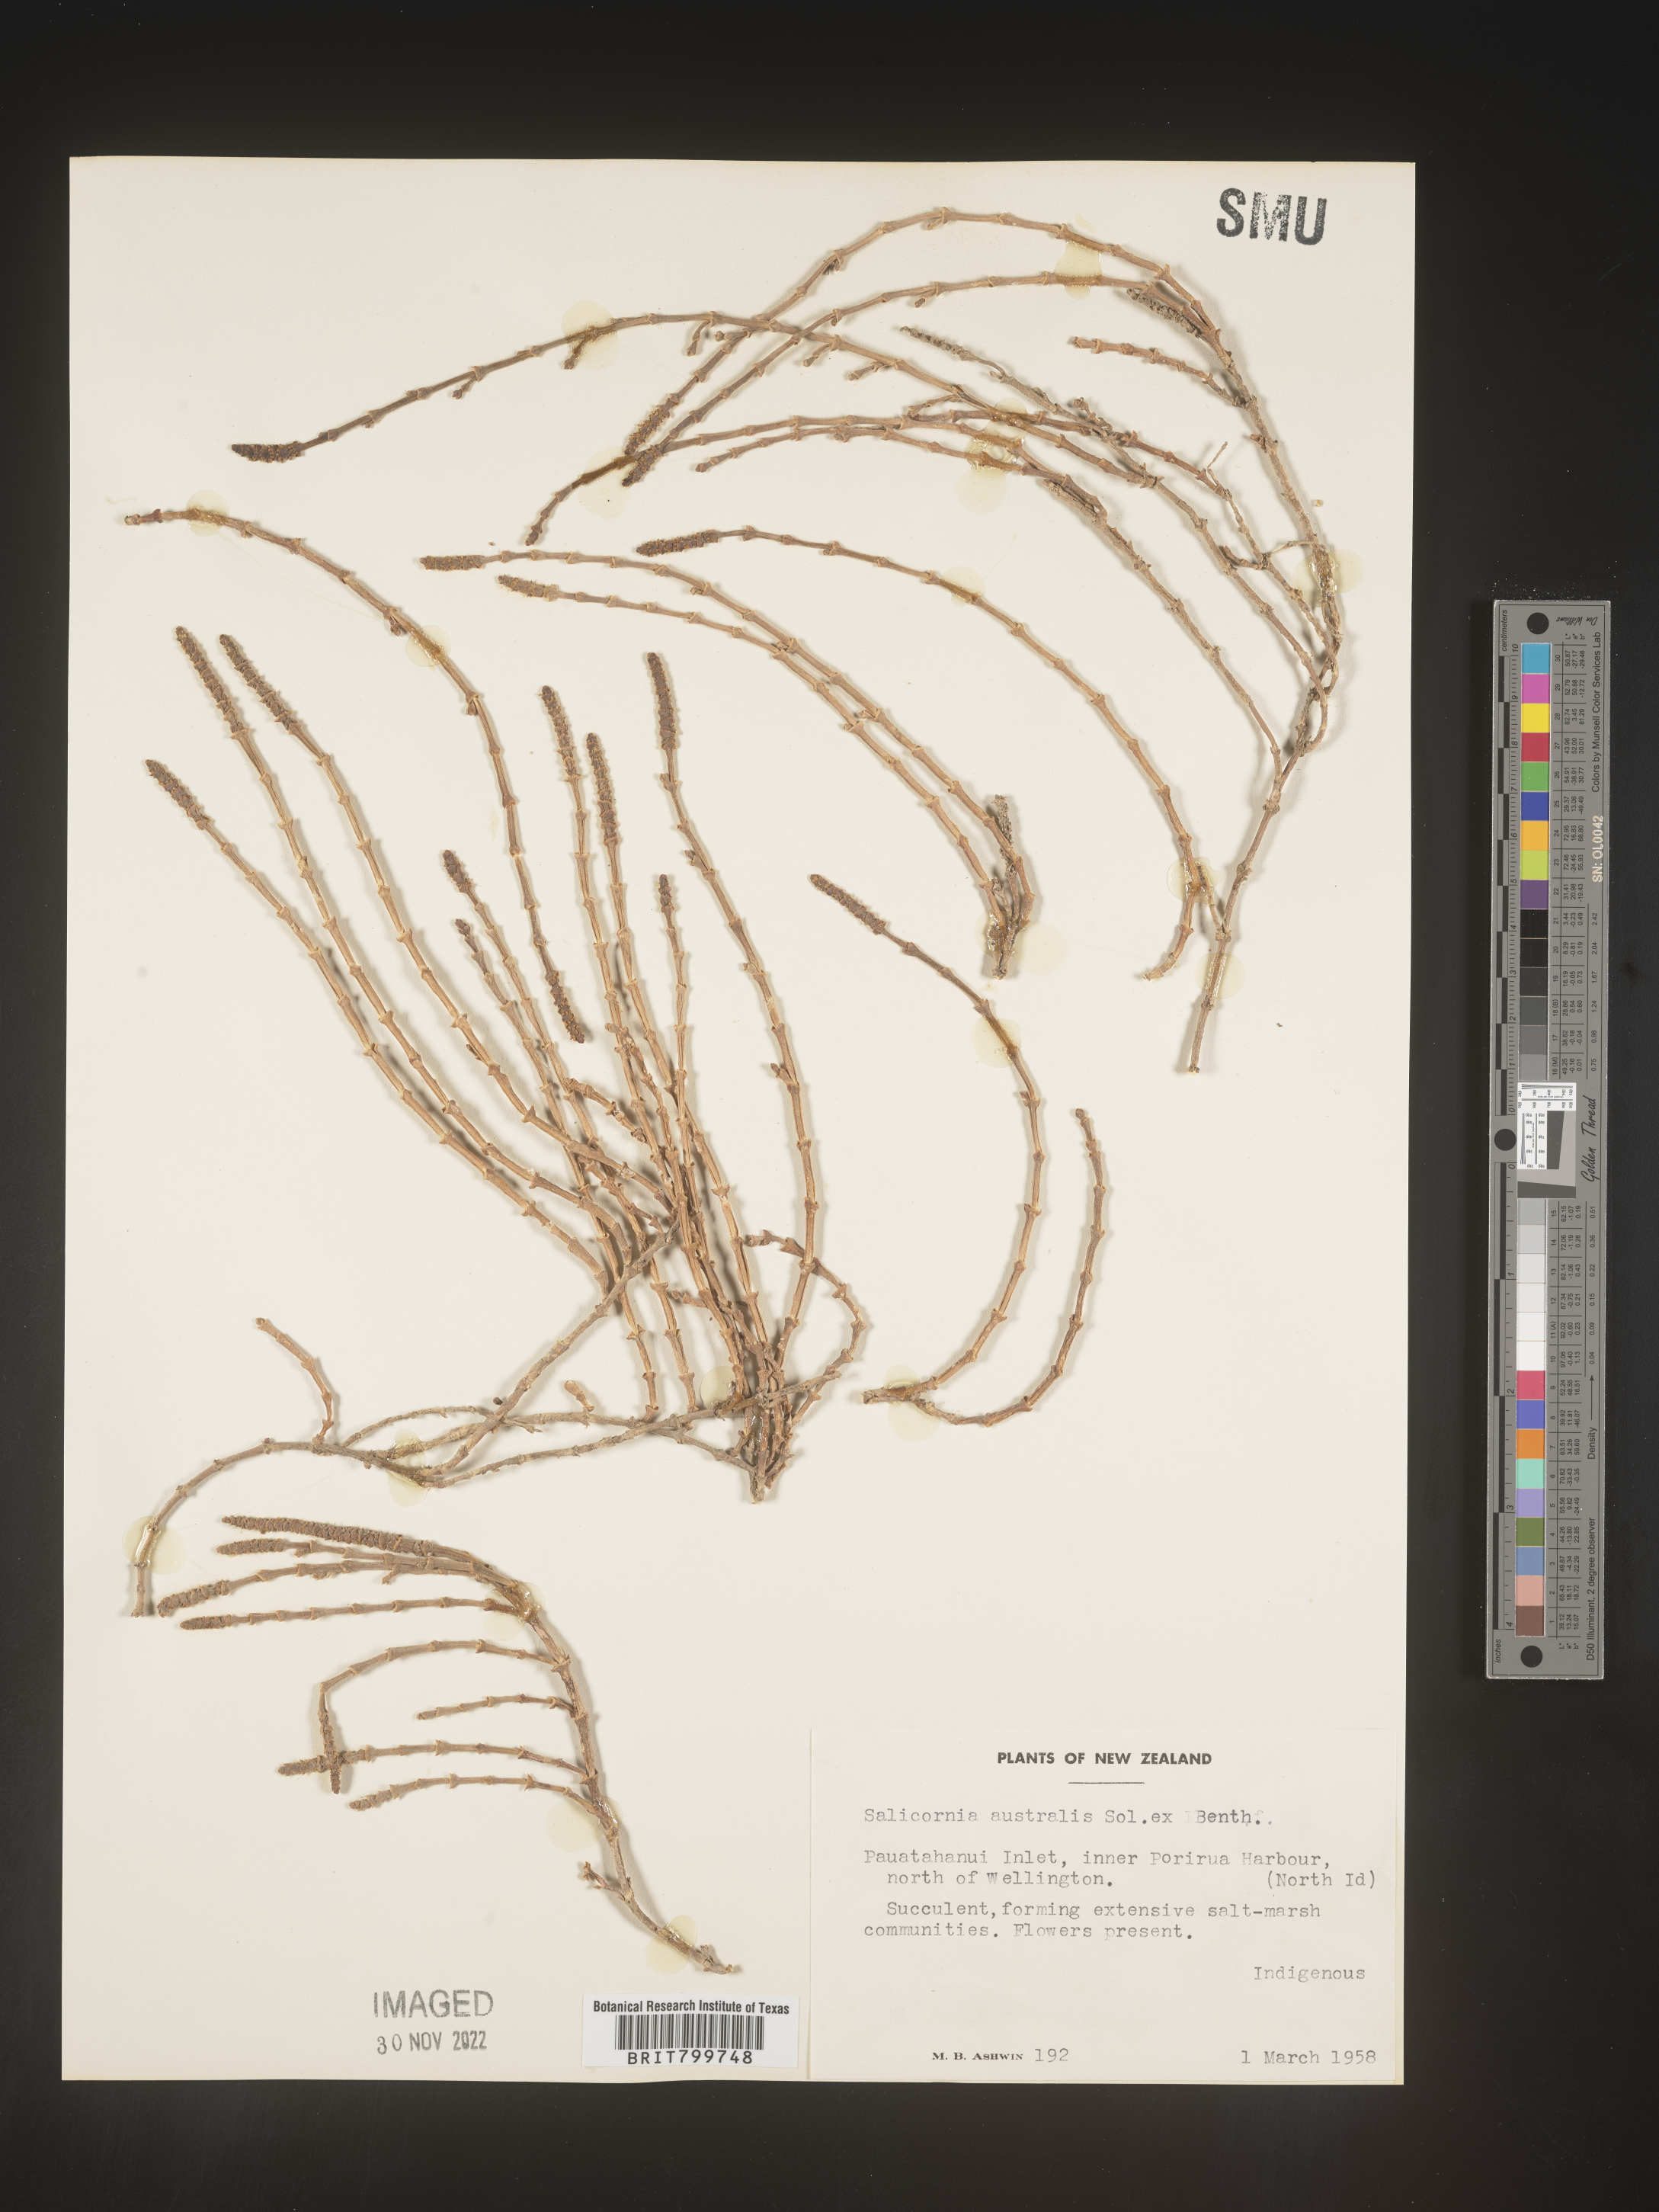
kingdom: Plantae
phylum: Tracheophyta
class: Magnoliopsida
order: Caryophyllales
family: Amaranthaceae
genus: Salicornia
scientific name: Salicornia
